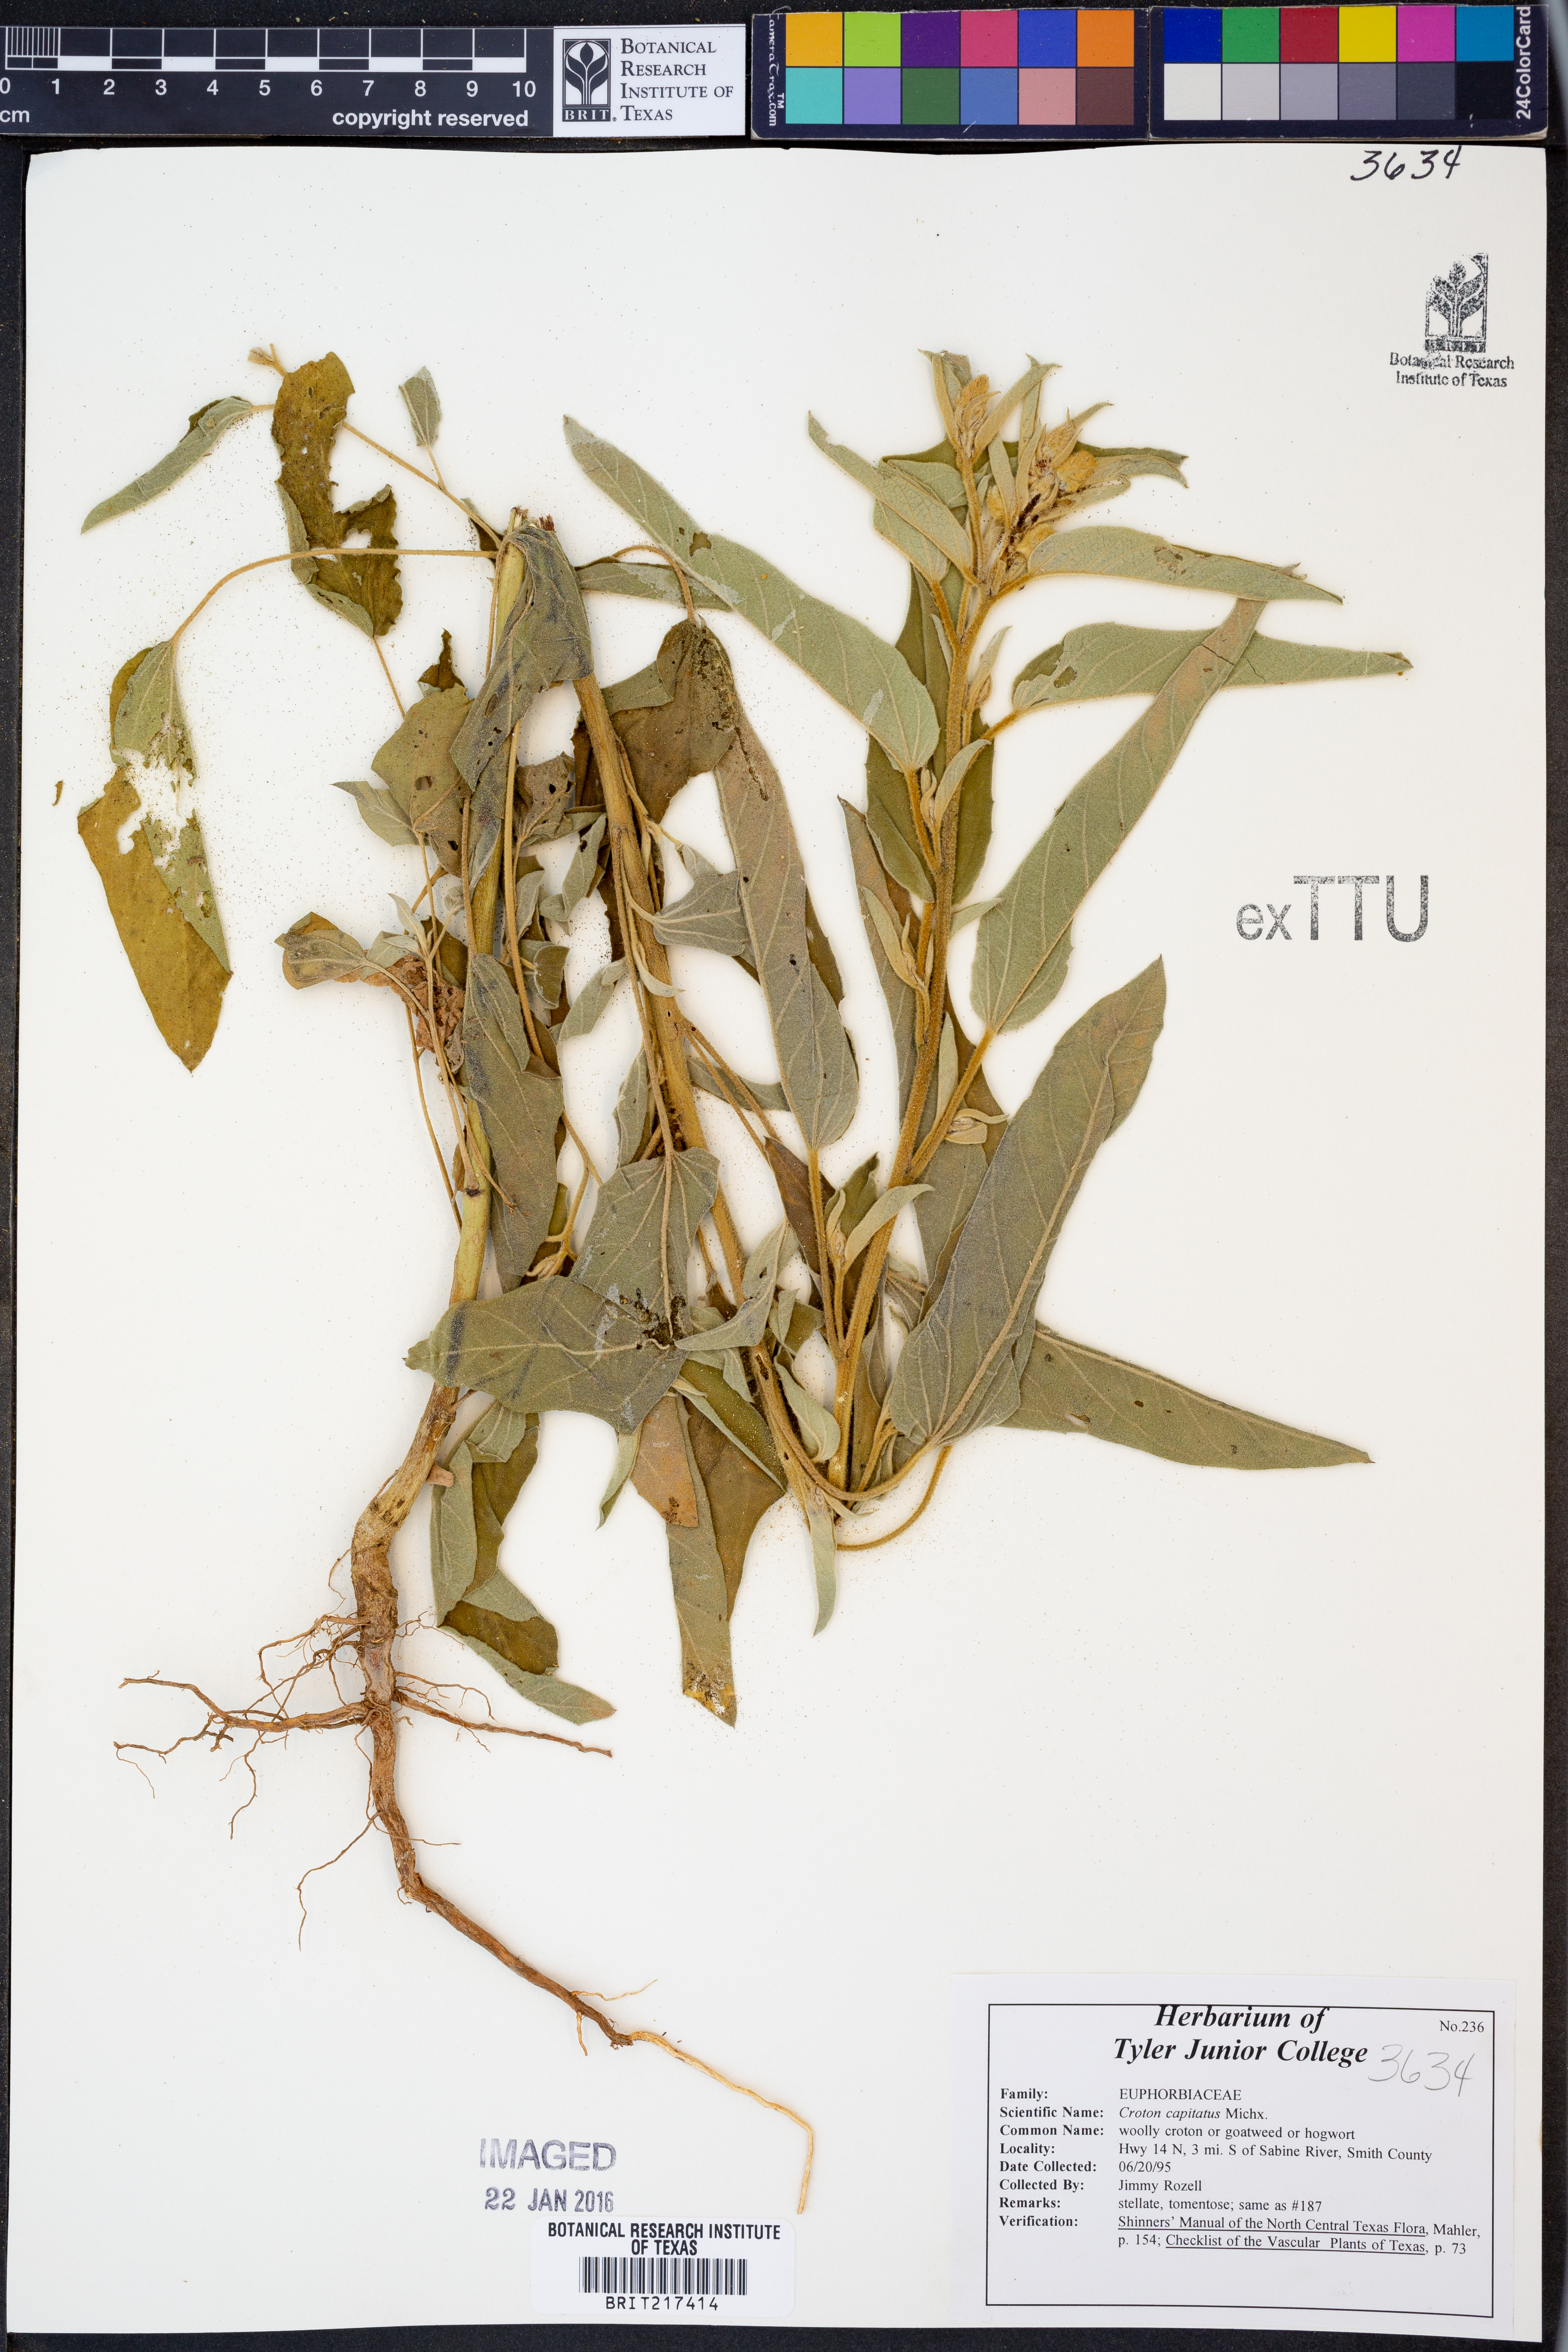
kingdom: Plantae
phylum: Tracheophyta
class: Magnoliopsida
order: Malpighiales
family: Euphorbiaceae
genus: Croton
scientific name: Croton capitatus
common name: Woolly croton
